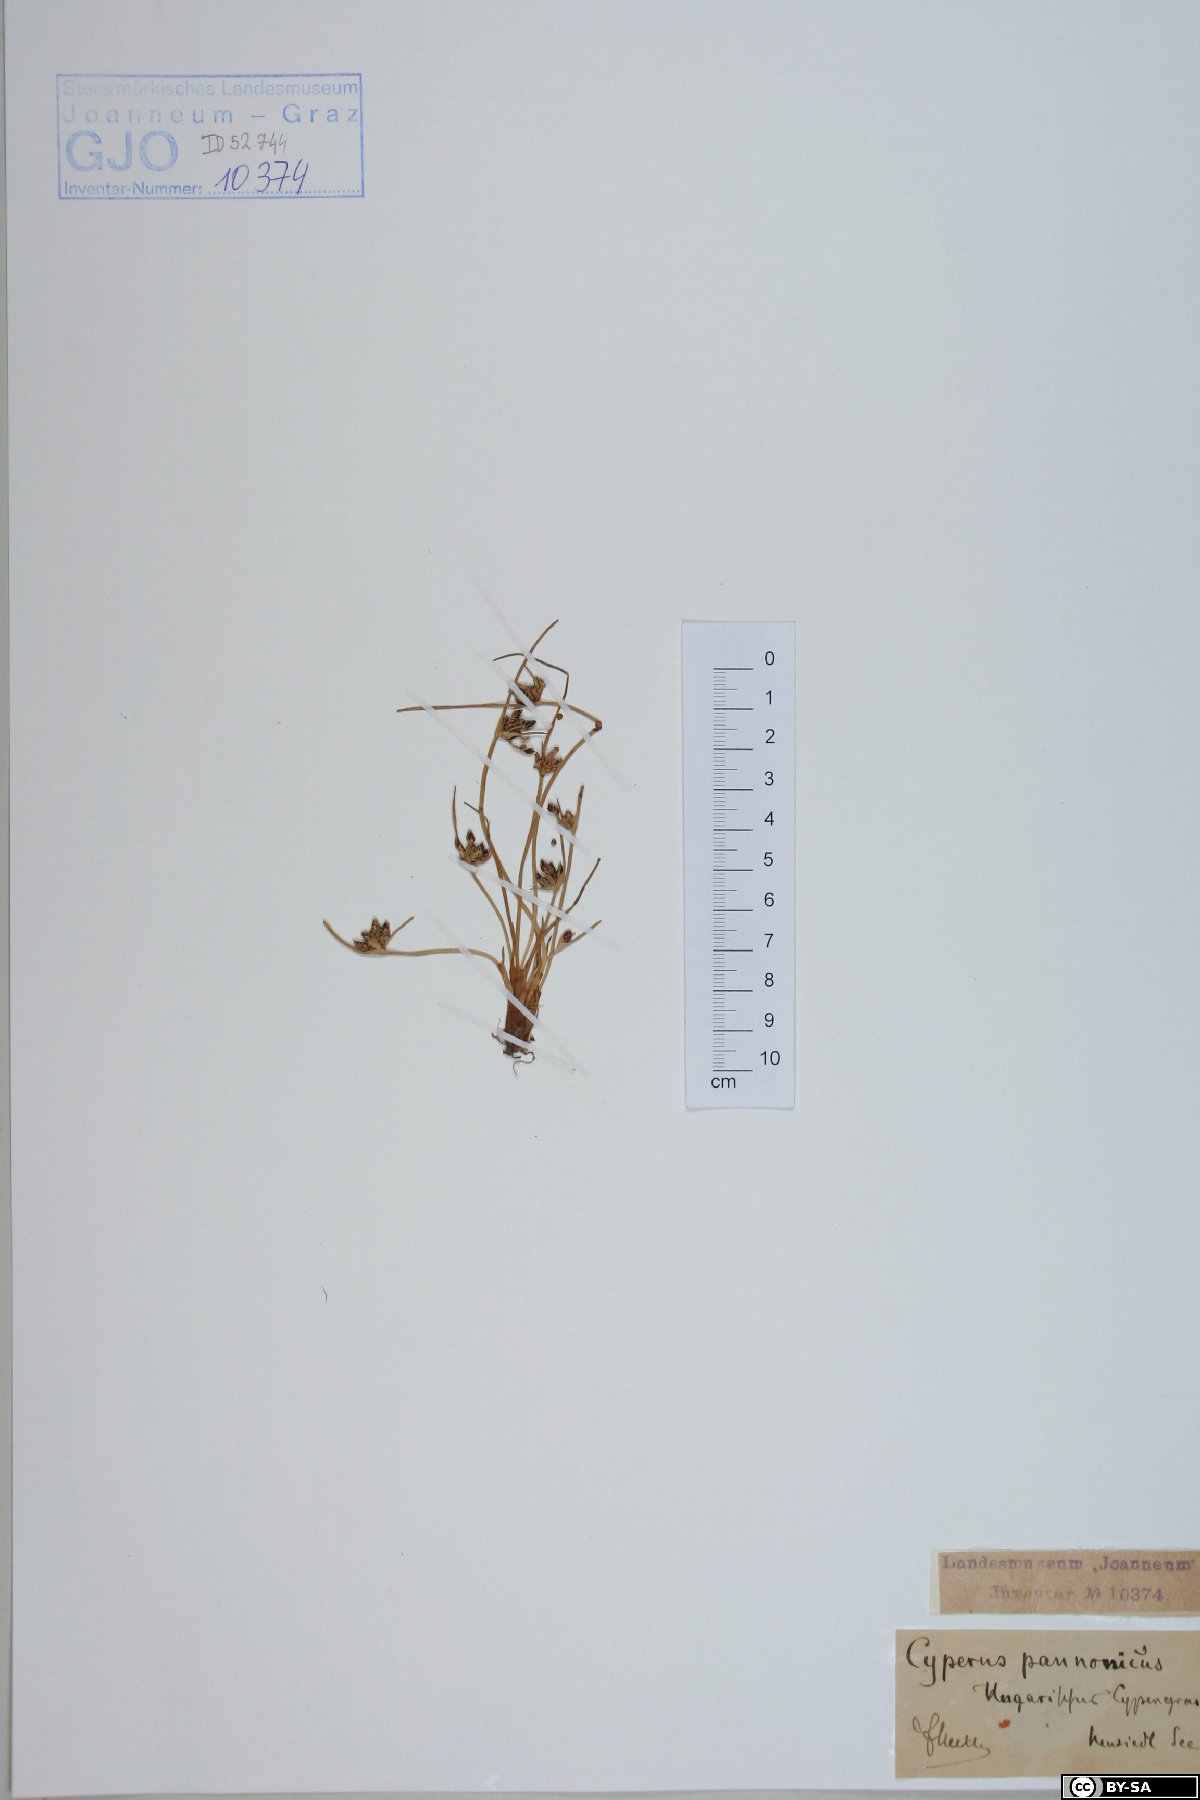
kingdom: Plantae
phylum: Tracheophyta
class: Liliopsida
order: Poales
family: Cyperaceae
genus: Cyperus
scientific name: Cyperus pannonicus
